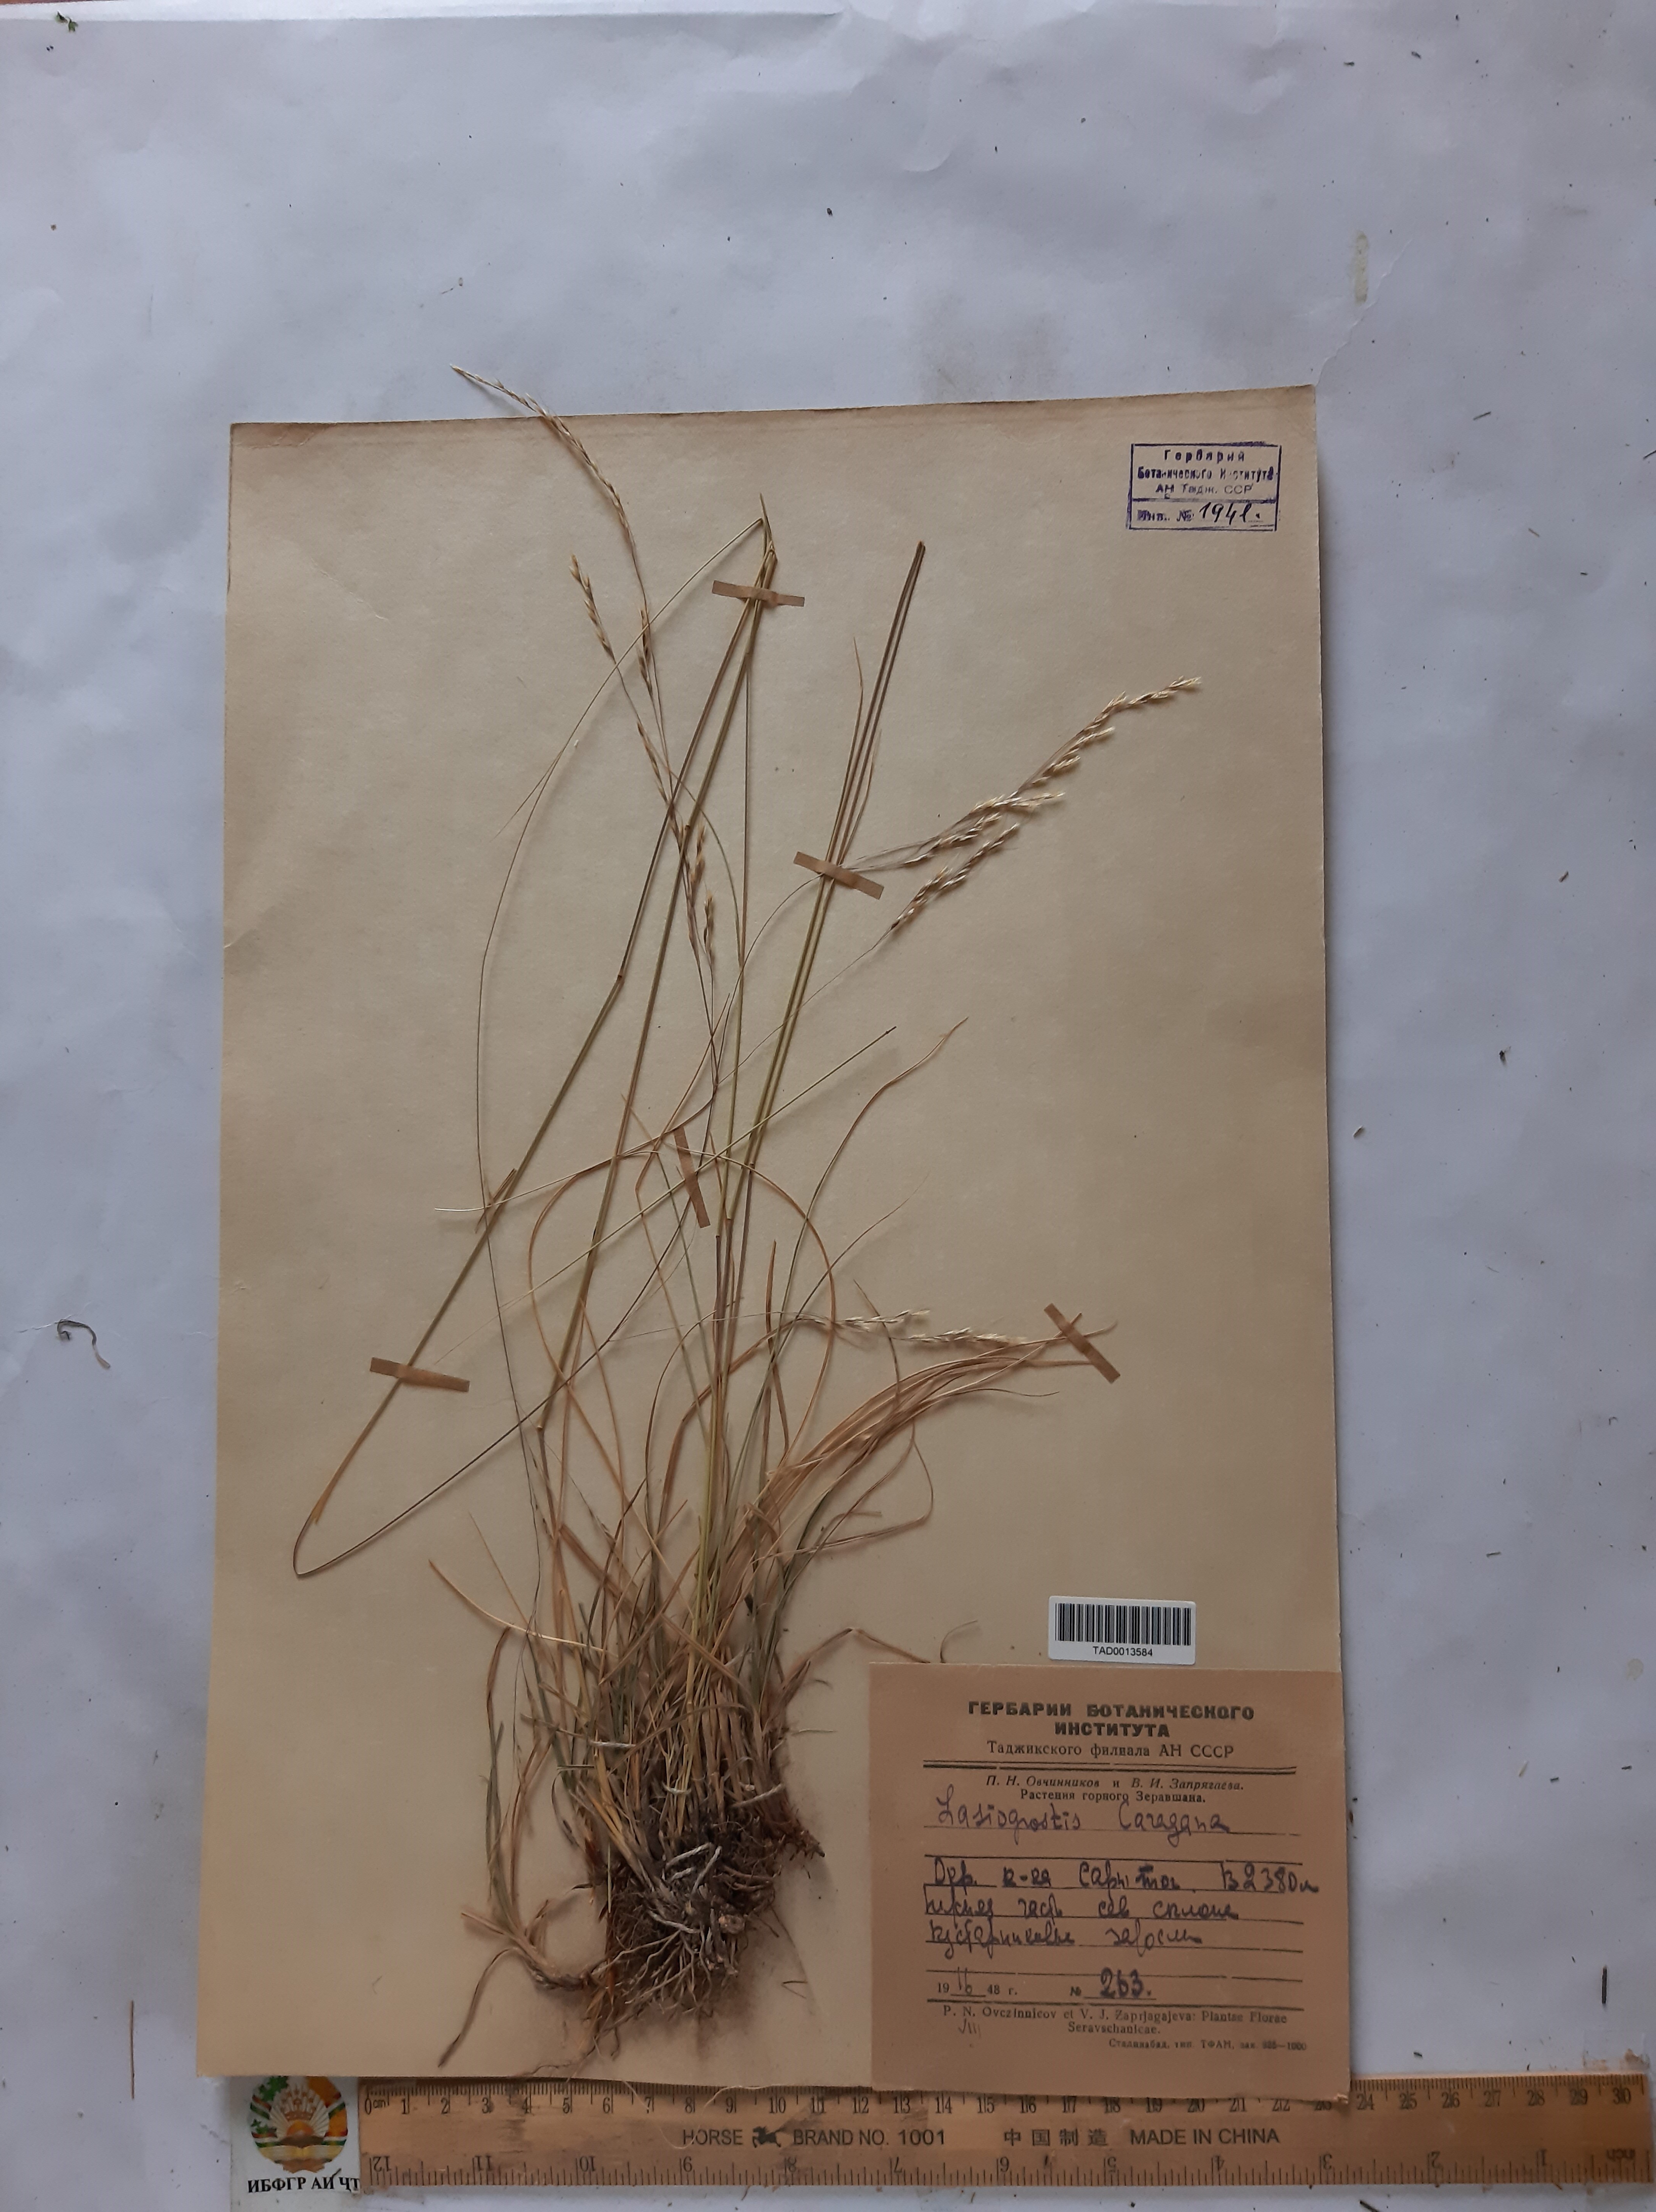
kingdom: Plantae
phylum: Tracheophyta
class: Liliopsida
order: Poales
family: Poaceae
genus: Stipa
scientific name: Stipa conferta
